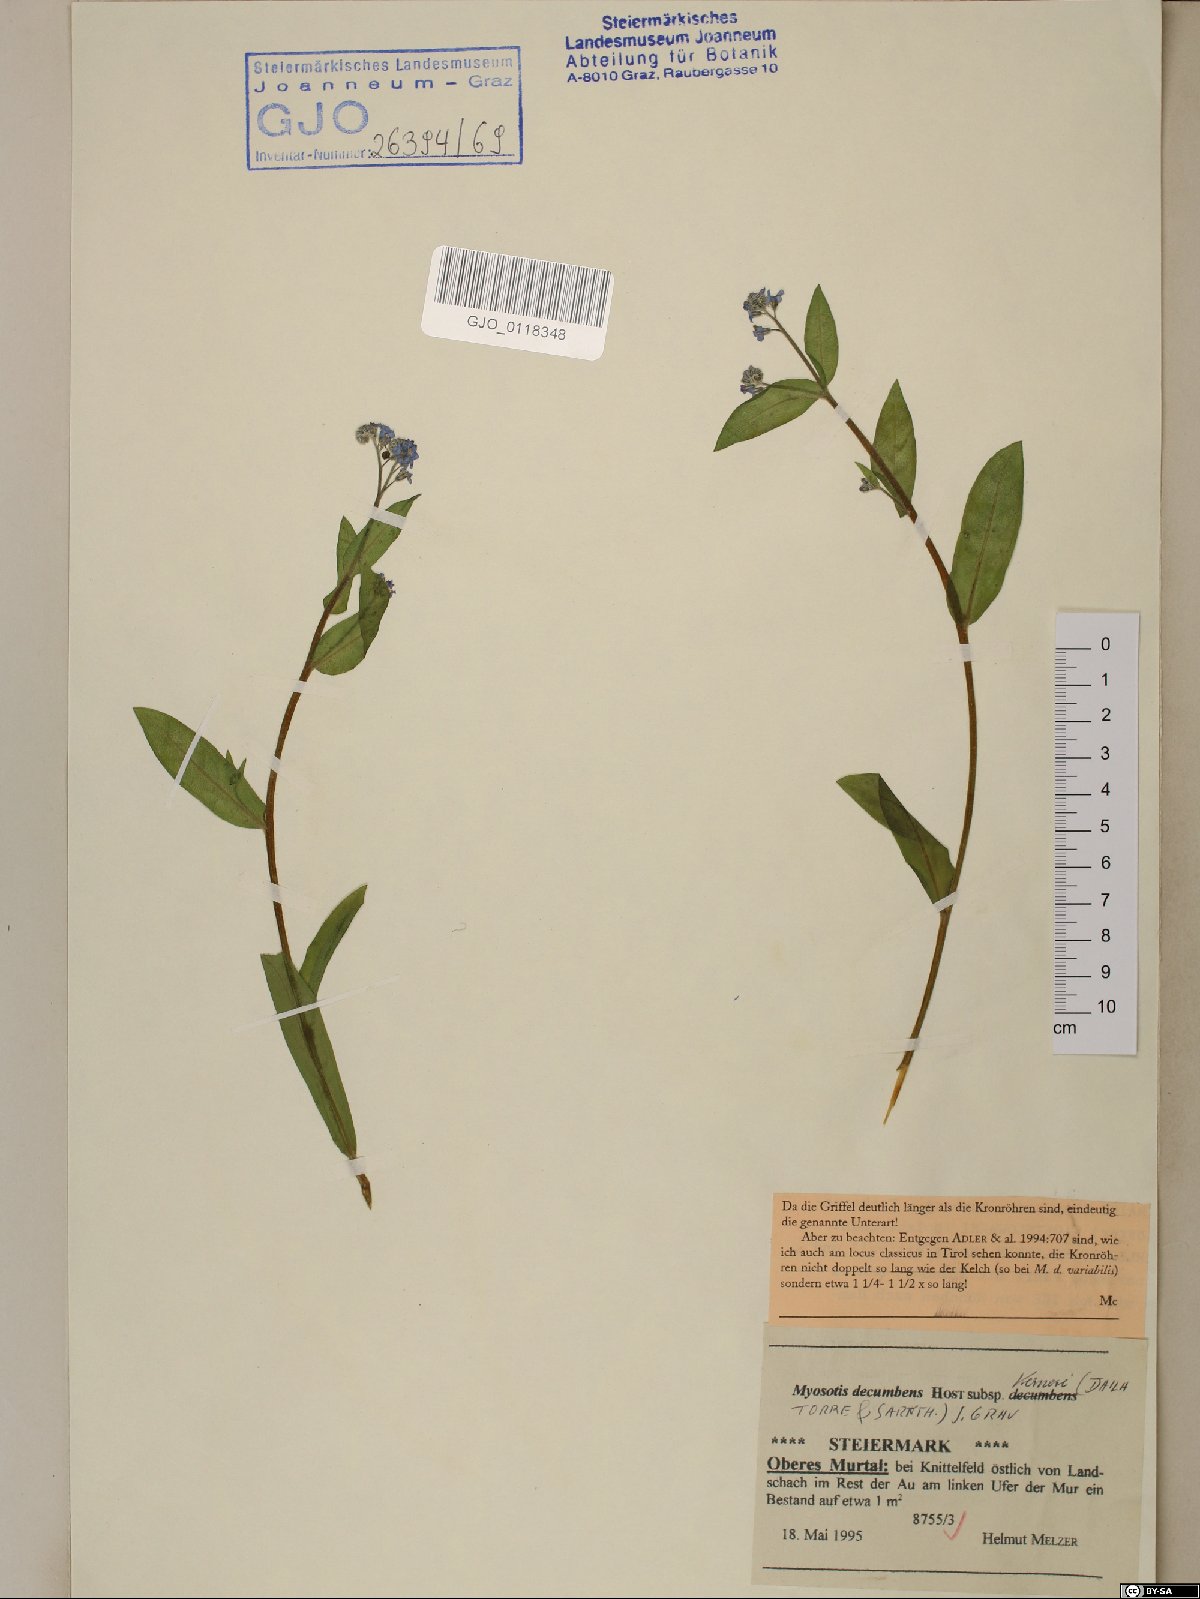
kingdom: Plantae
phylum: Tracheophyta
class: Magnoliopsida
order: Boraginales
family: Boraginaceae
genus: Myosotis
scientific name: Myosotis decumbens
